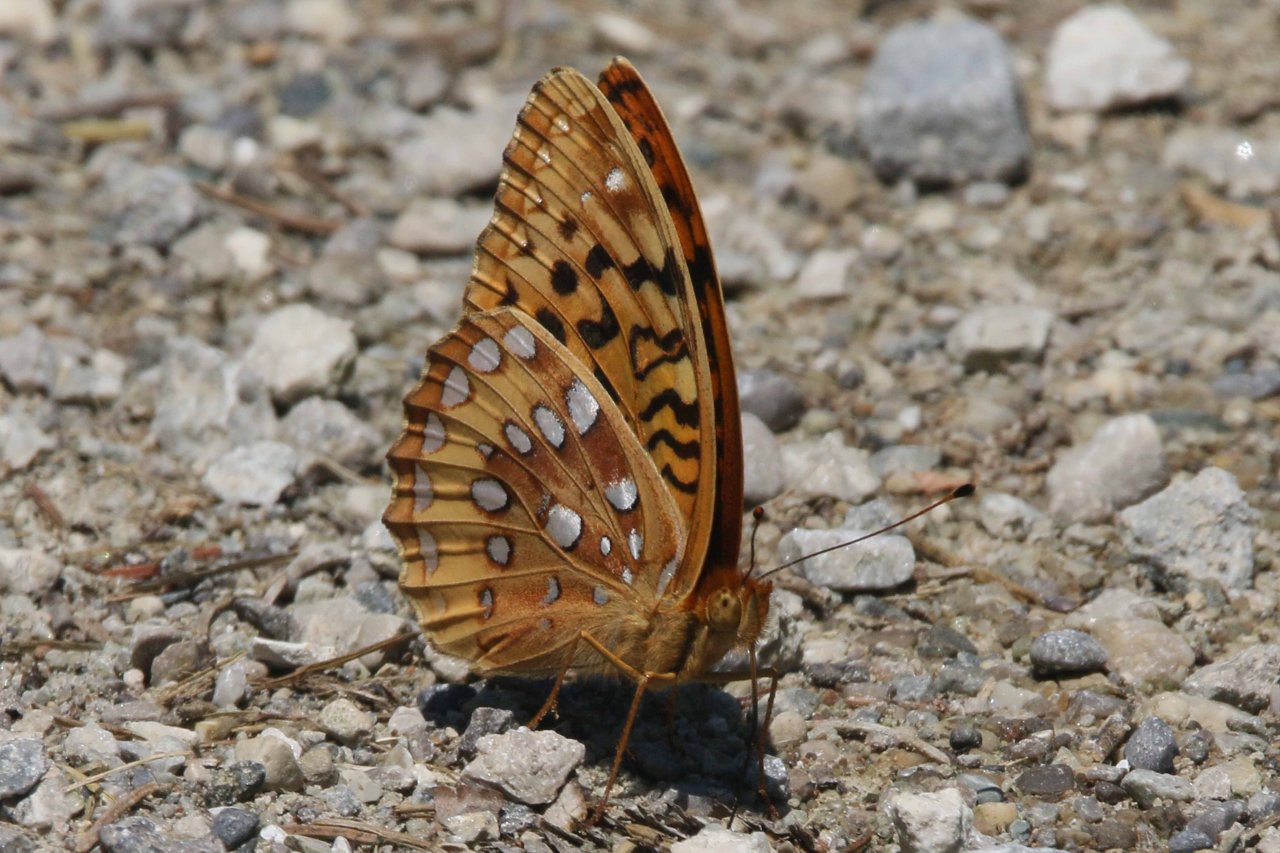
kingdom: Animalia
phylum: Arthropoda
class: Insecta
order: Lepidoptera
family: Nymphalidae
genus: Speyeria
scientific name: Speyeria cybele
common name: Great Spangled Fritillary
